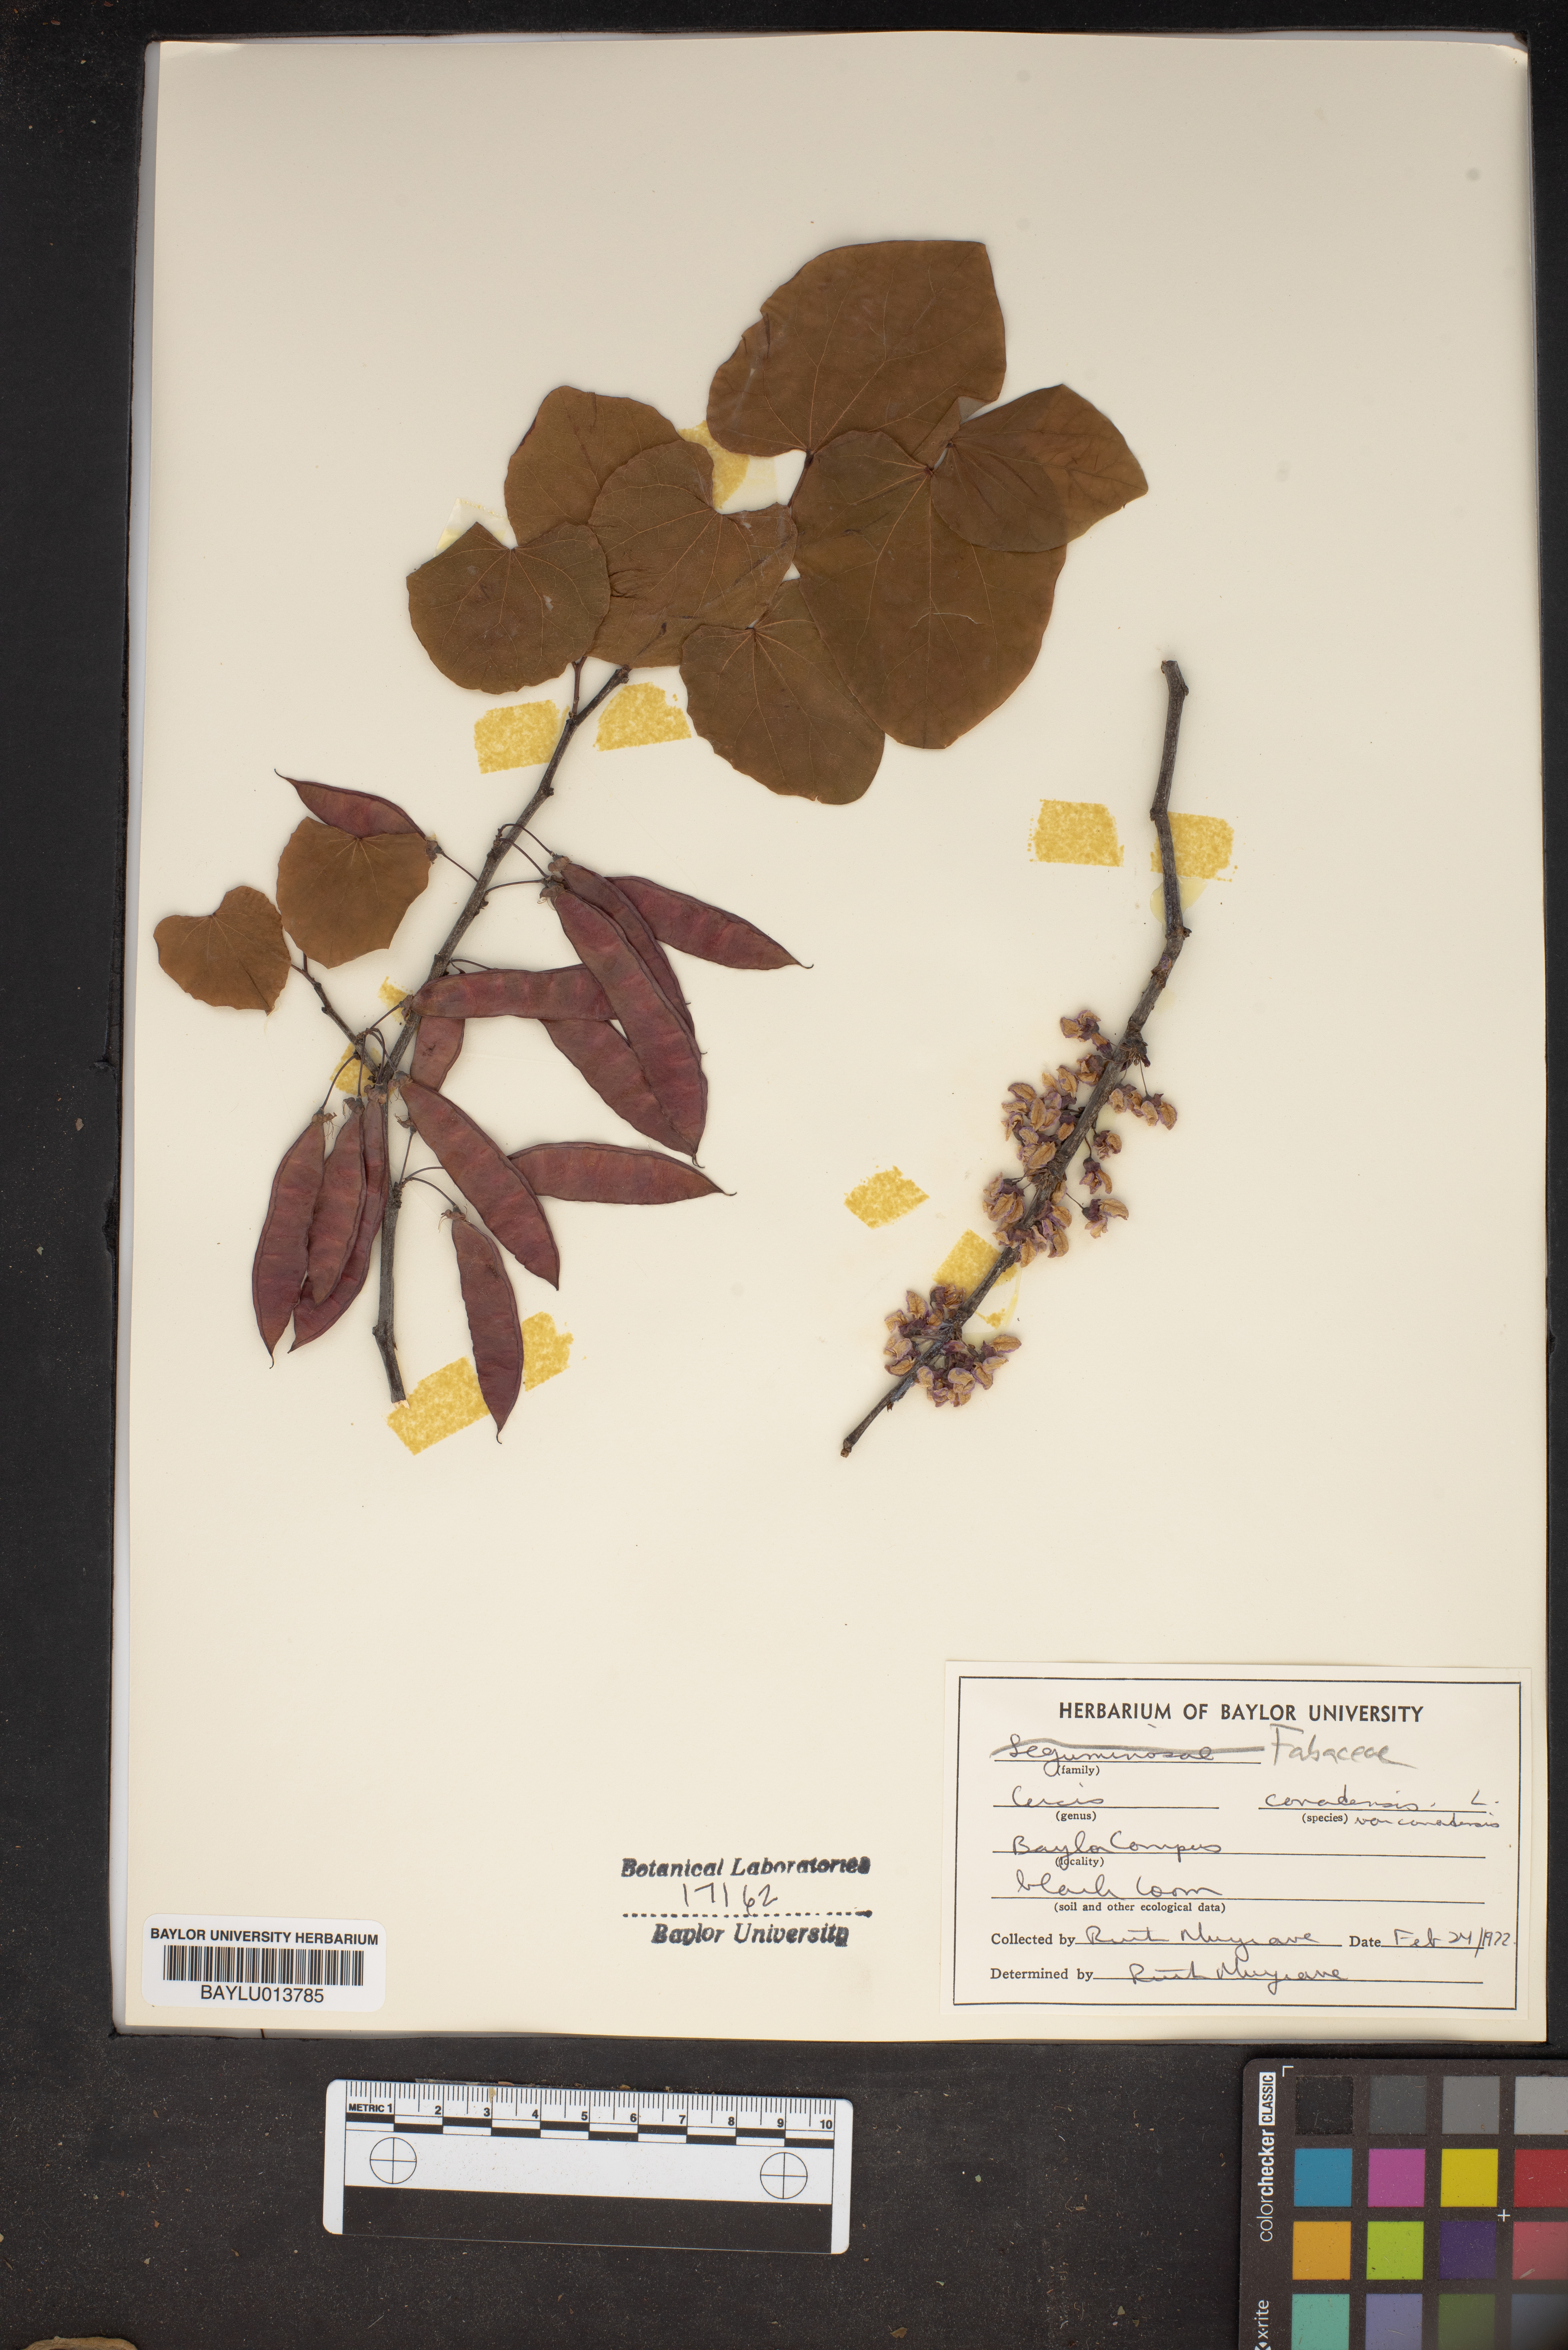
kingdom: Plantae
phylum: Tracheophyta
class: Magnoliopsida
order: Fabales
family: Fabaceae
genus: Cercis
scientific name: Cercis canadensis
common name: Eastern redbud
